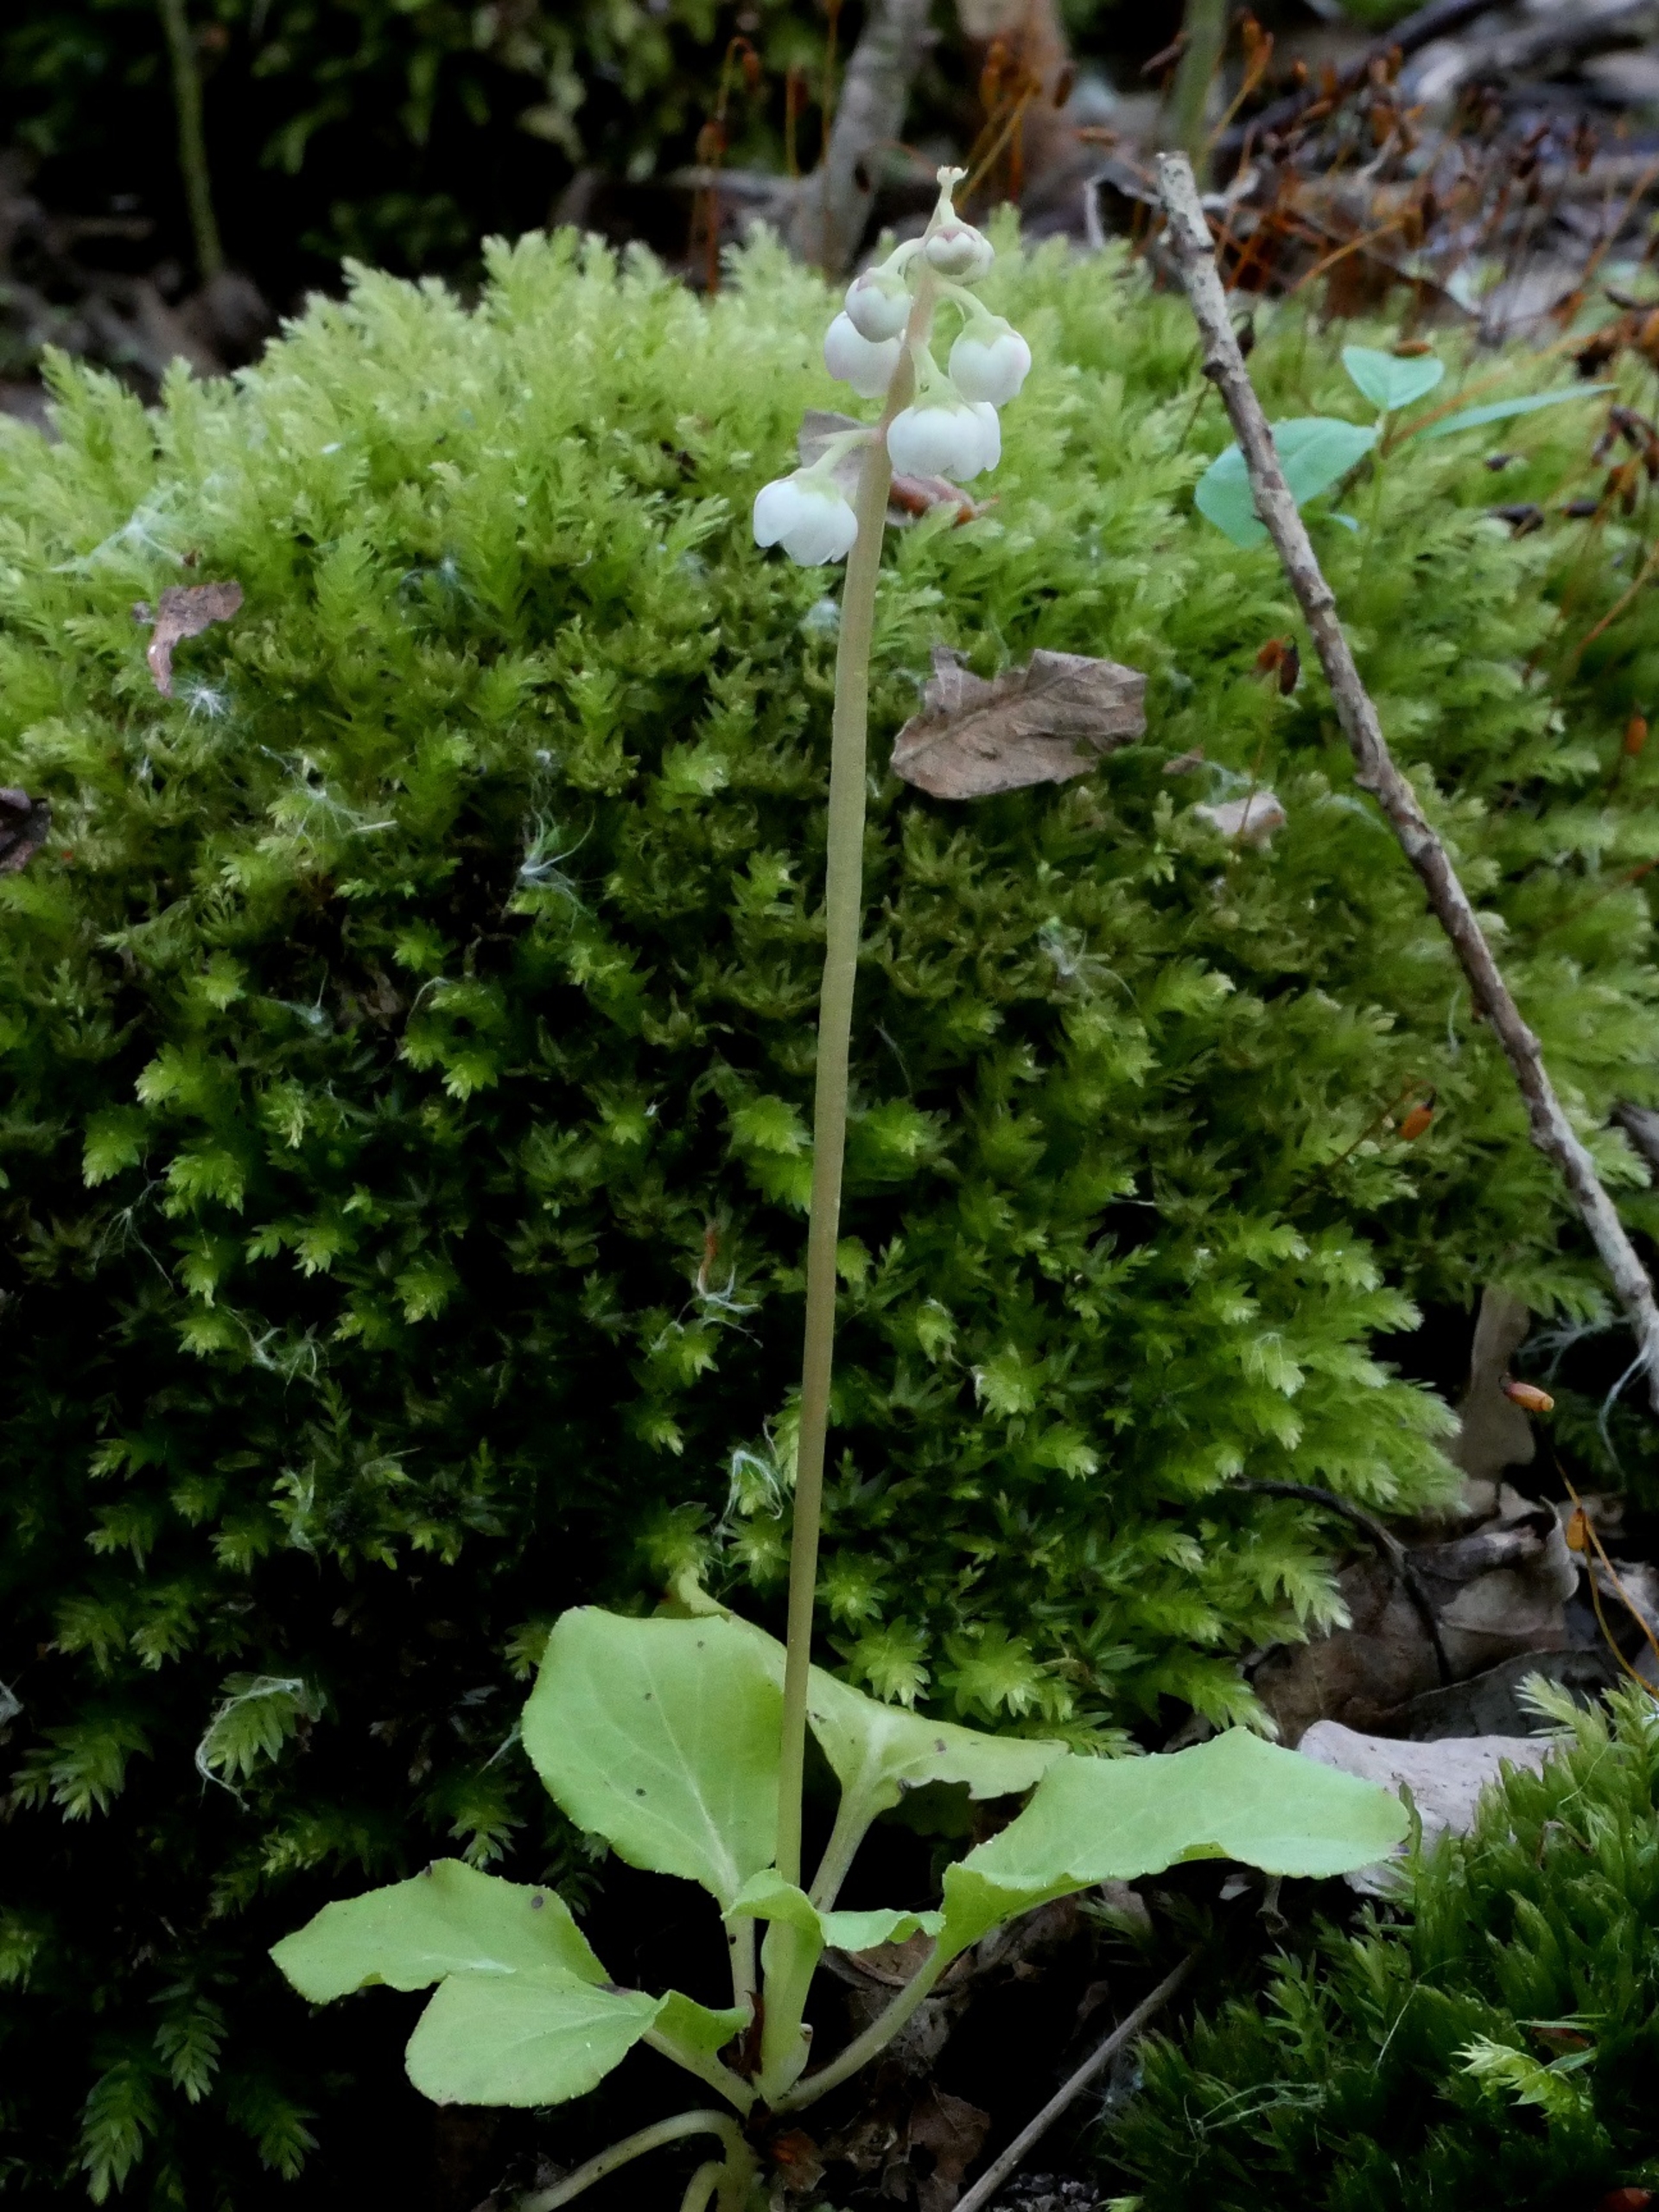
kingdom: Plantae
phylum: Tracheophyta
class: Magnoliopsida
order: Ericales
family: Ericaceae
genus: Pyrola
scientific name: Pyrola minor
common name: Liden vintergrøn
